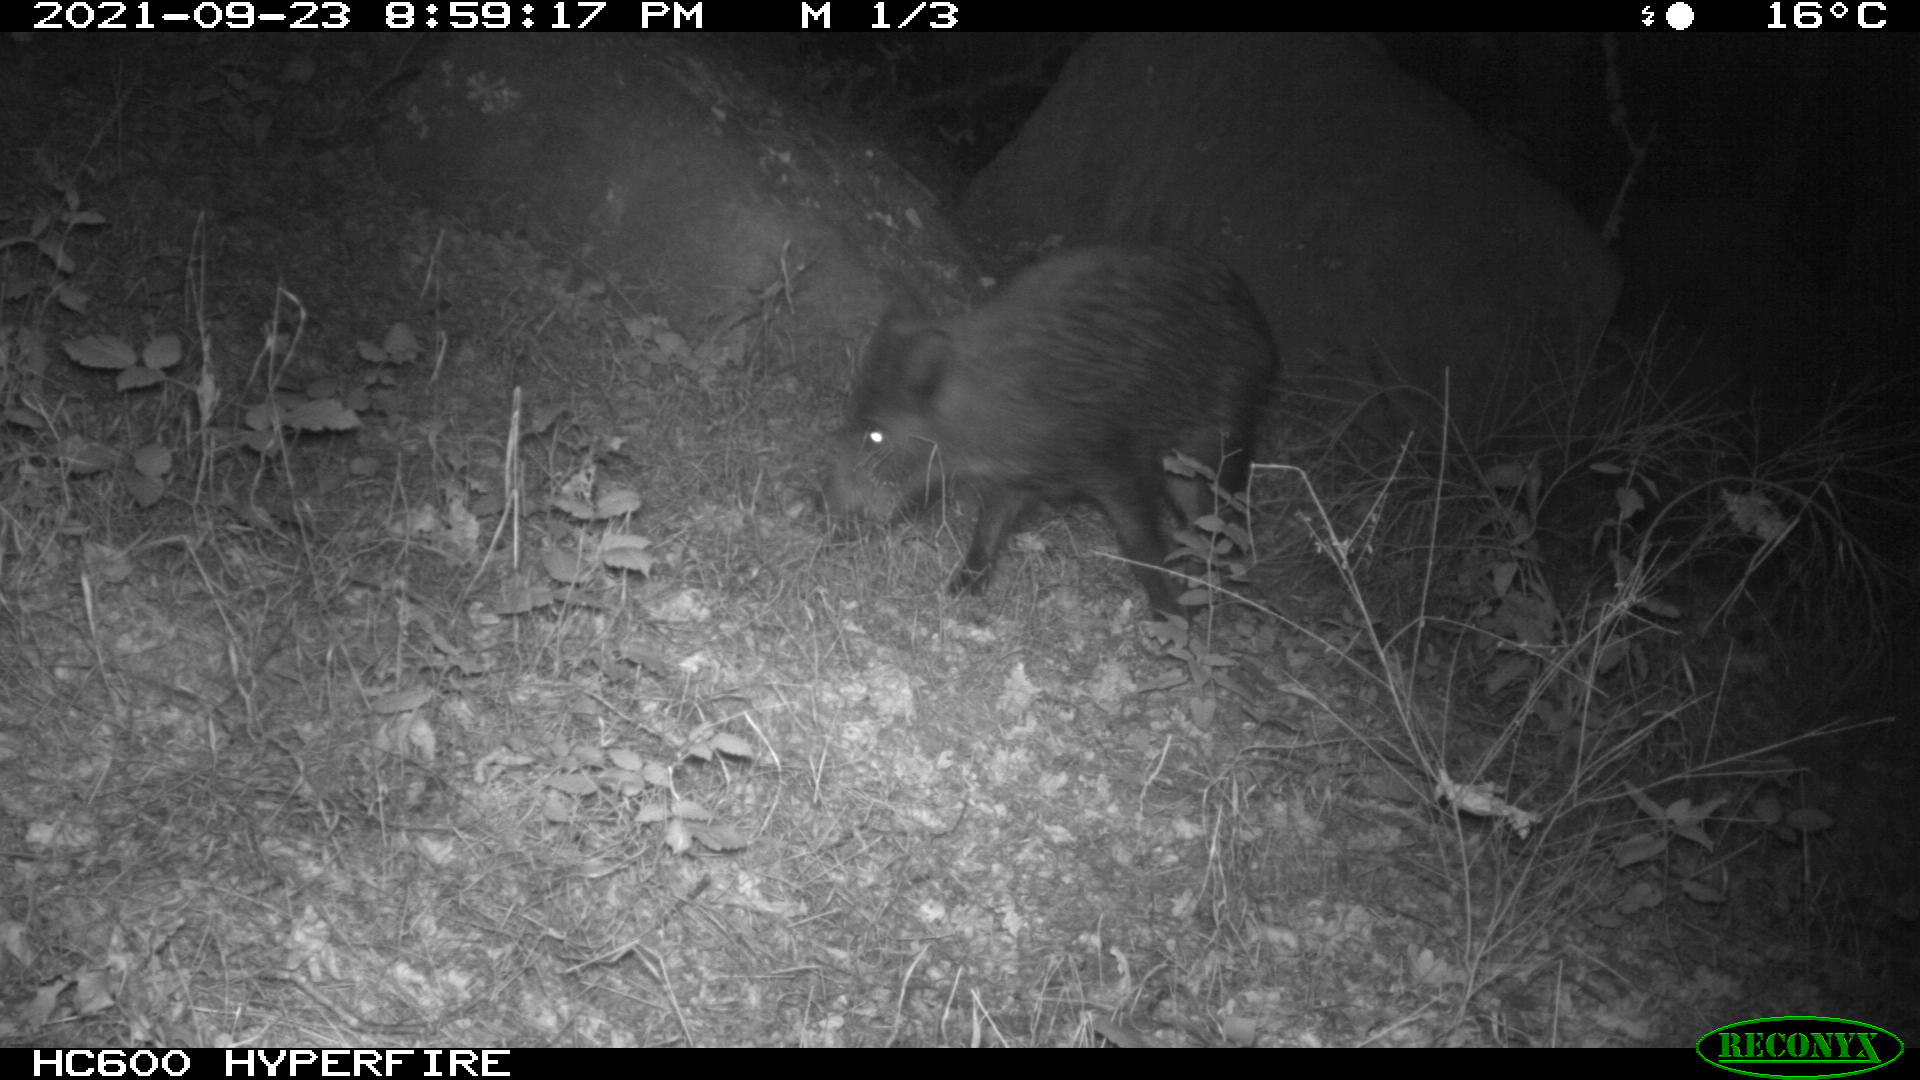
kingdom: Animalia
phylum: Chordata
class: Mammalia
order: Artiodactyla
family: Suidae
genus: Sus
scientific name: Sus scrofa
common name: Wild boar
